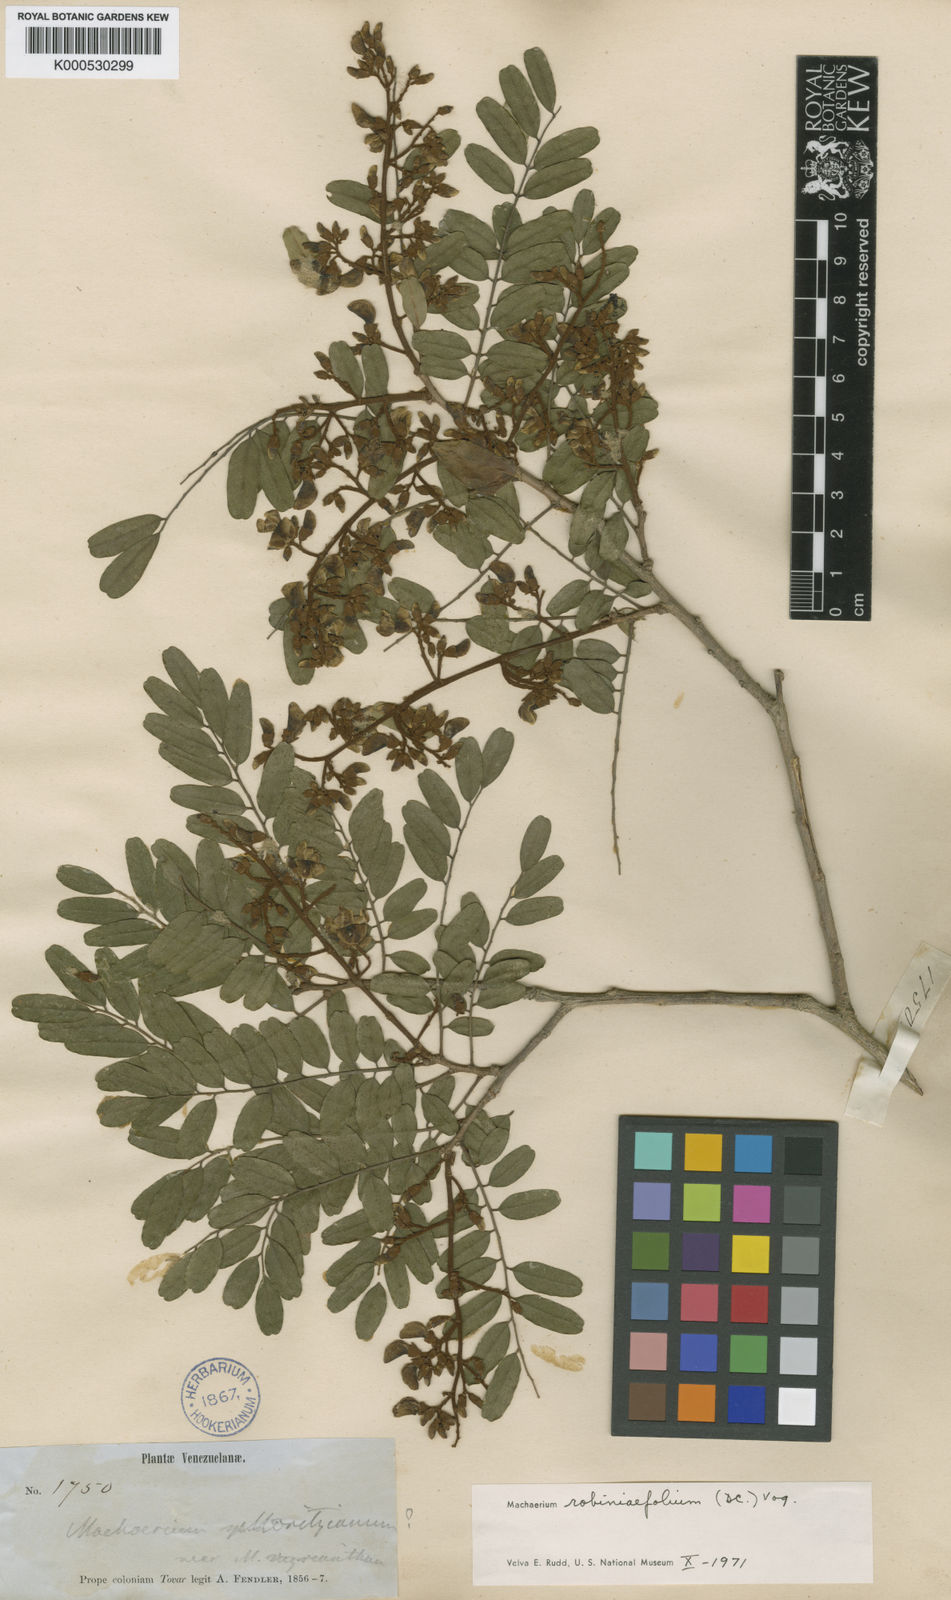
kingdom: Plantae
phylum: Tracheophyta
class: Magnoliopsida
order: Fabales
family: Fabaceae
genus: Machaerium
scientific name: Machaerium robiniifolium
